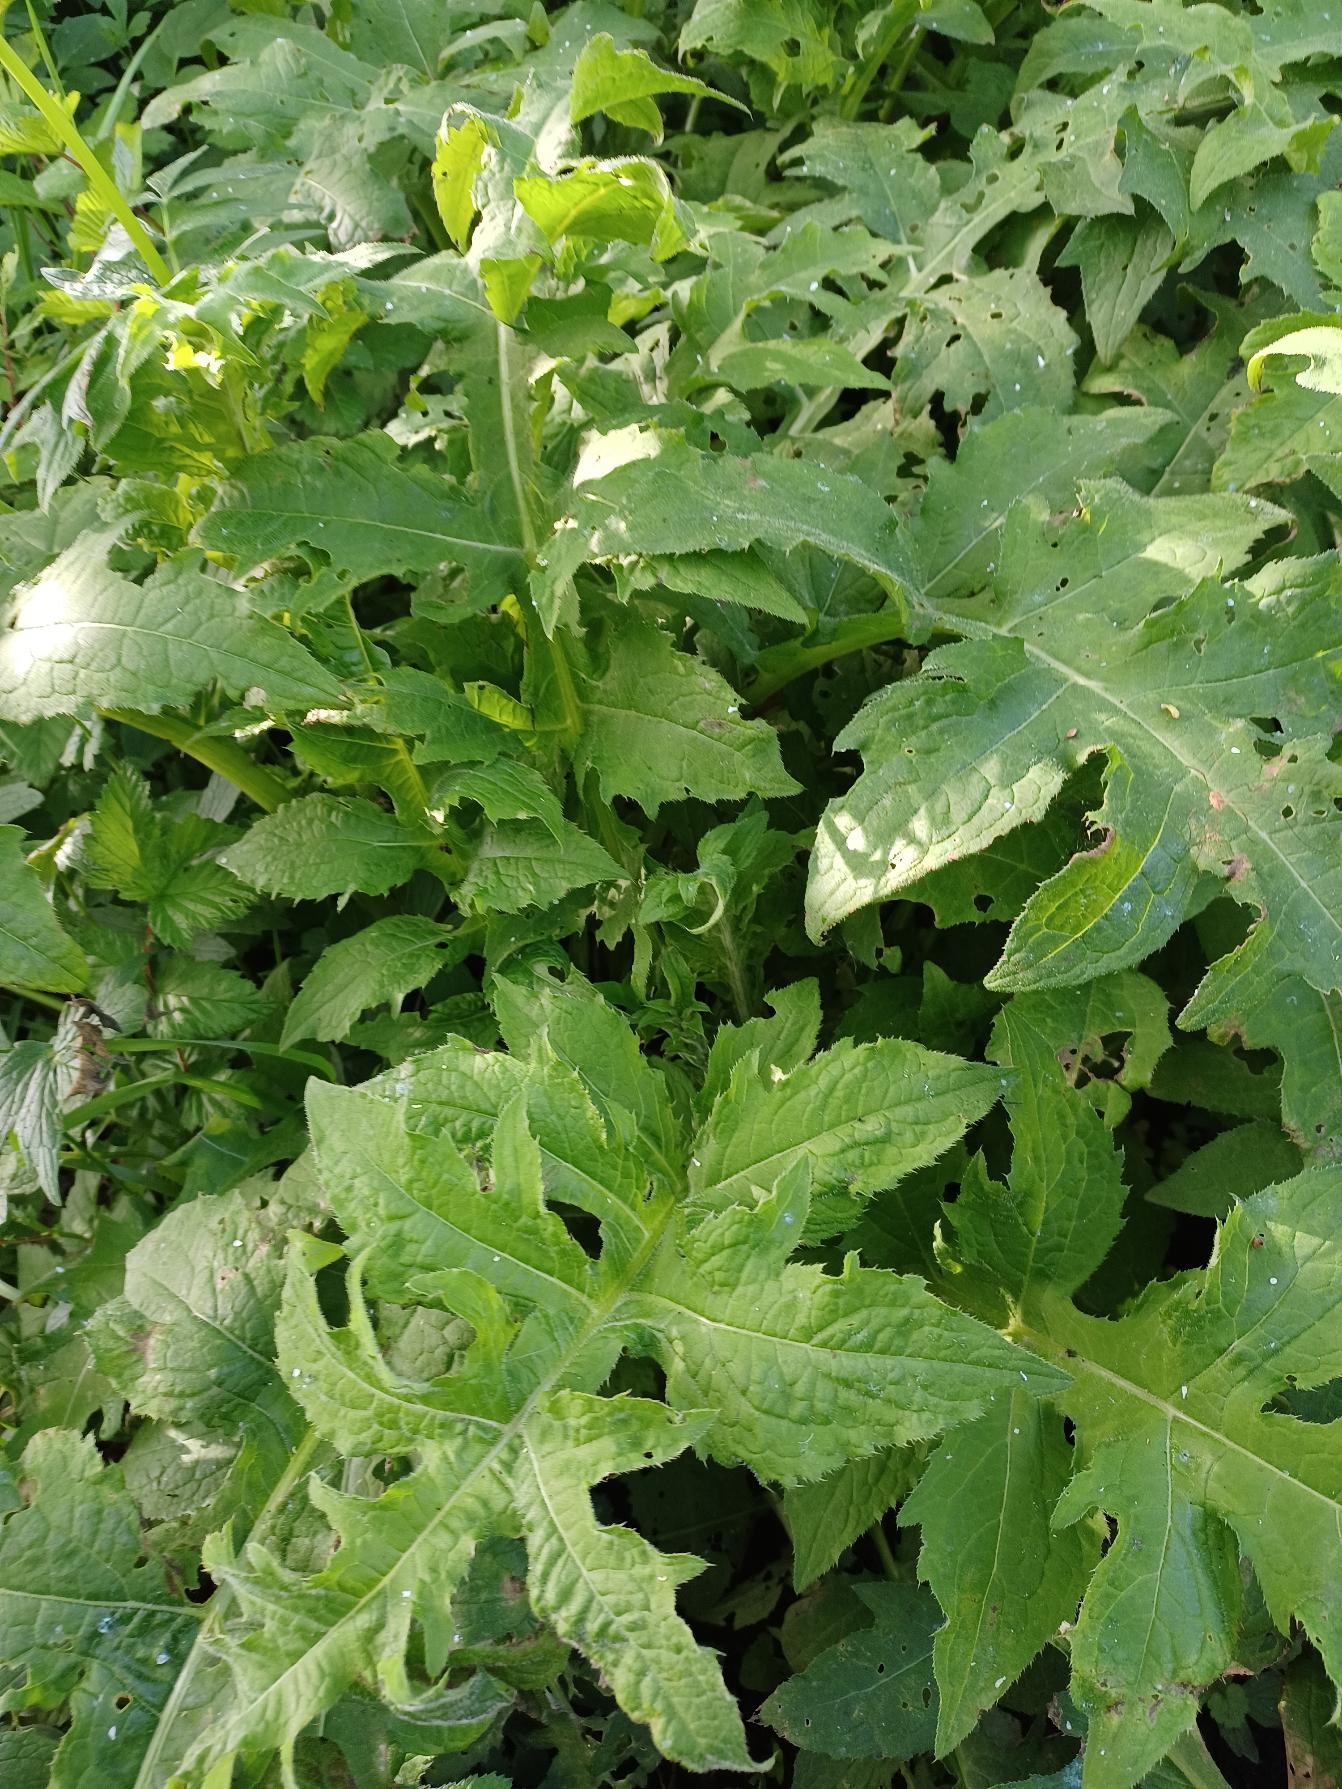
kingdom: Plantae
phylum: Tracheophyta
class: Magnoliopsida
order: Asterales
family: Asteraceae
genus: Cirsium
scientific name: Cirsium oleraceum
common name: Kål-tidsel
